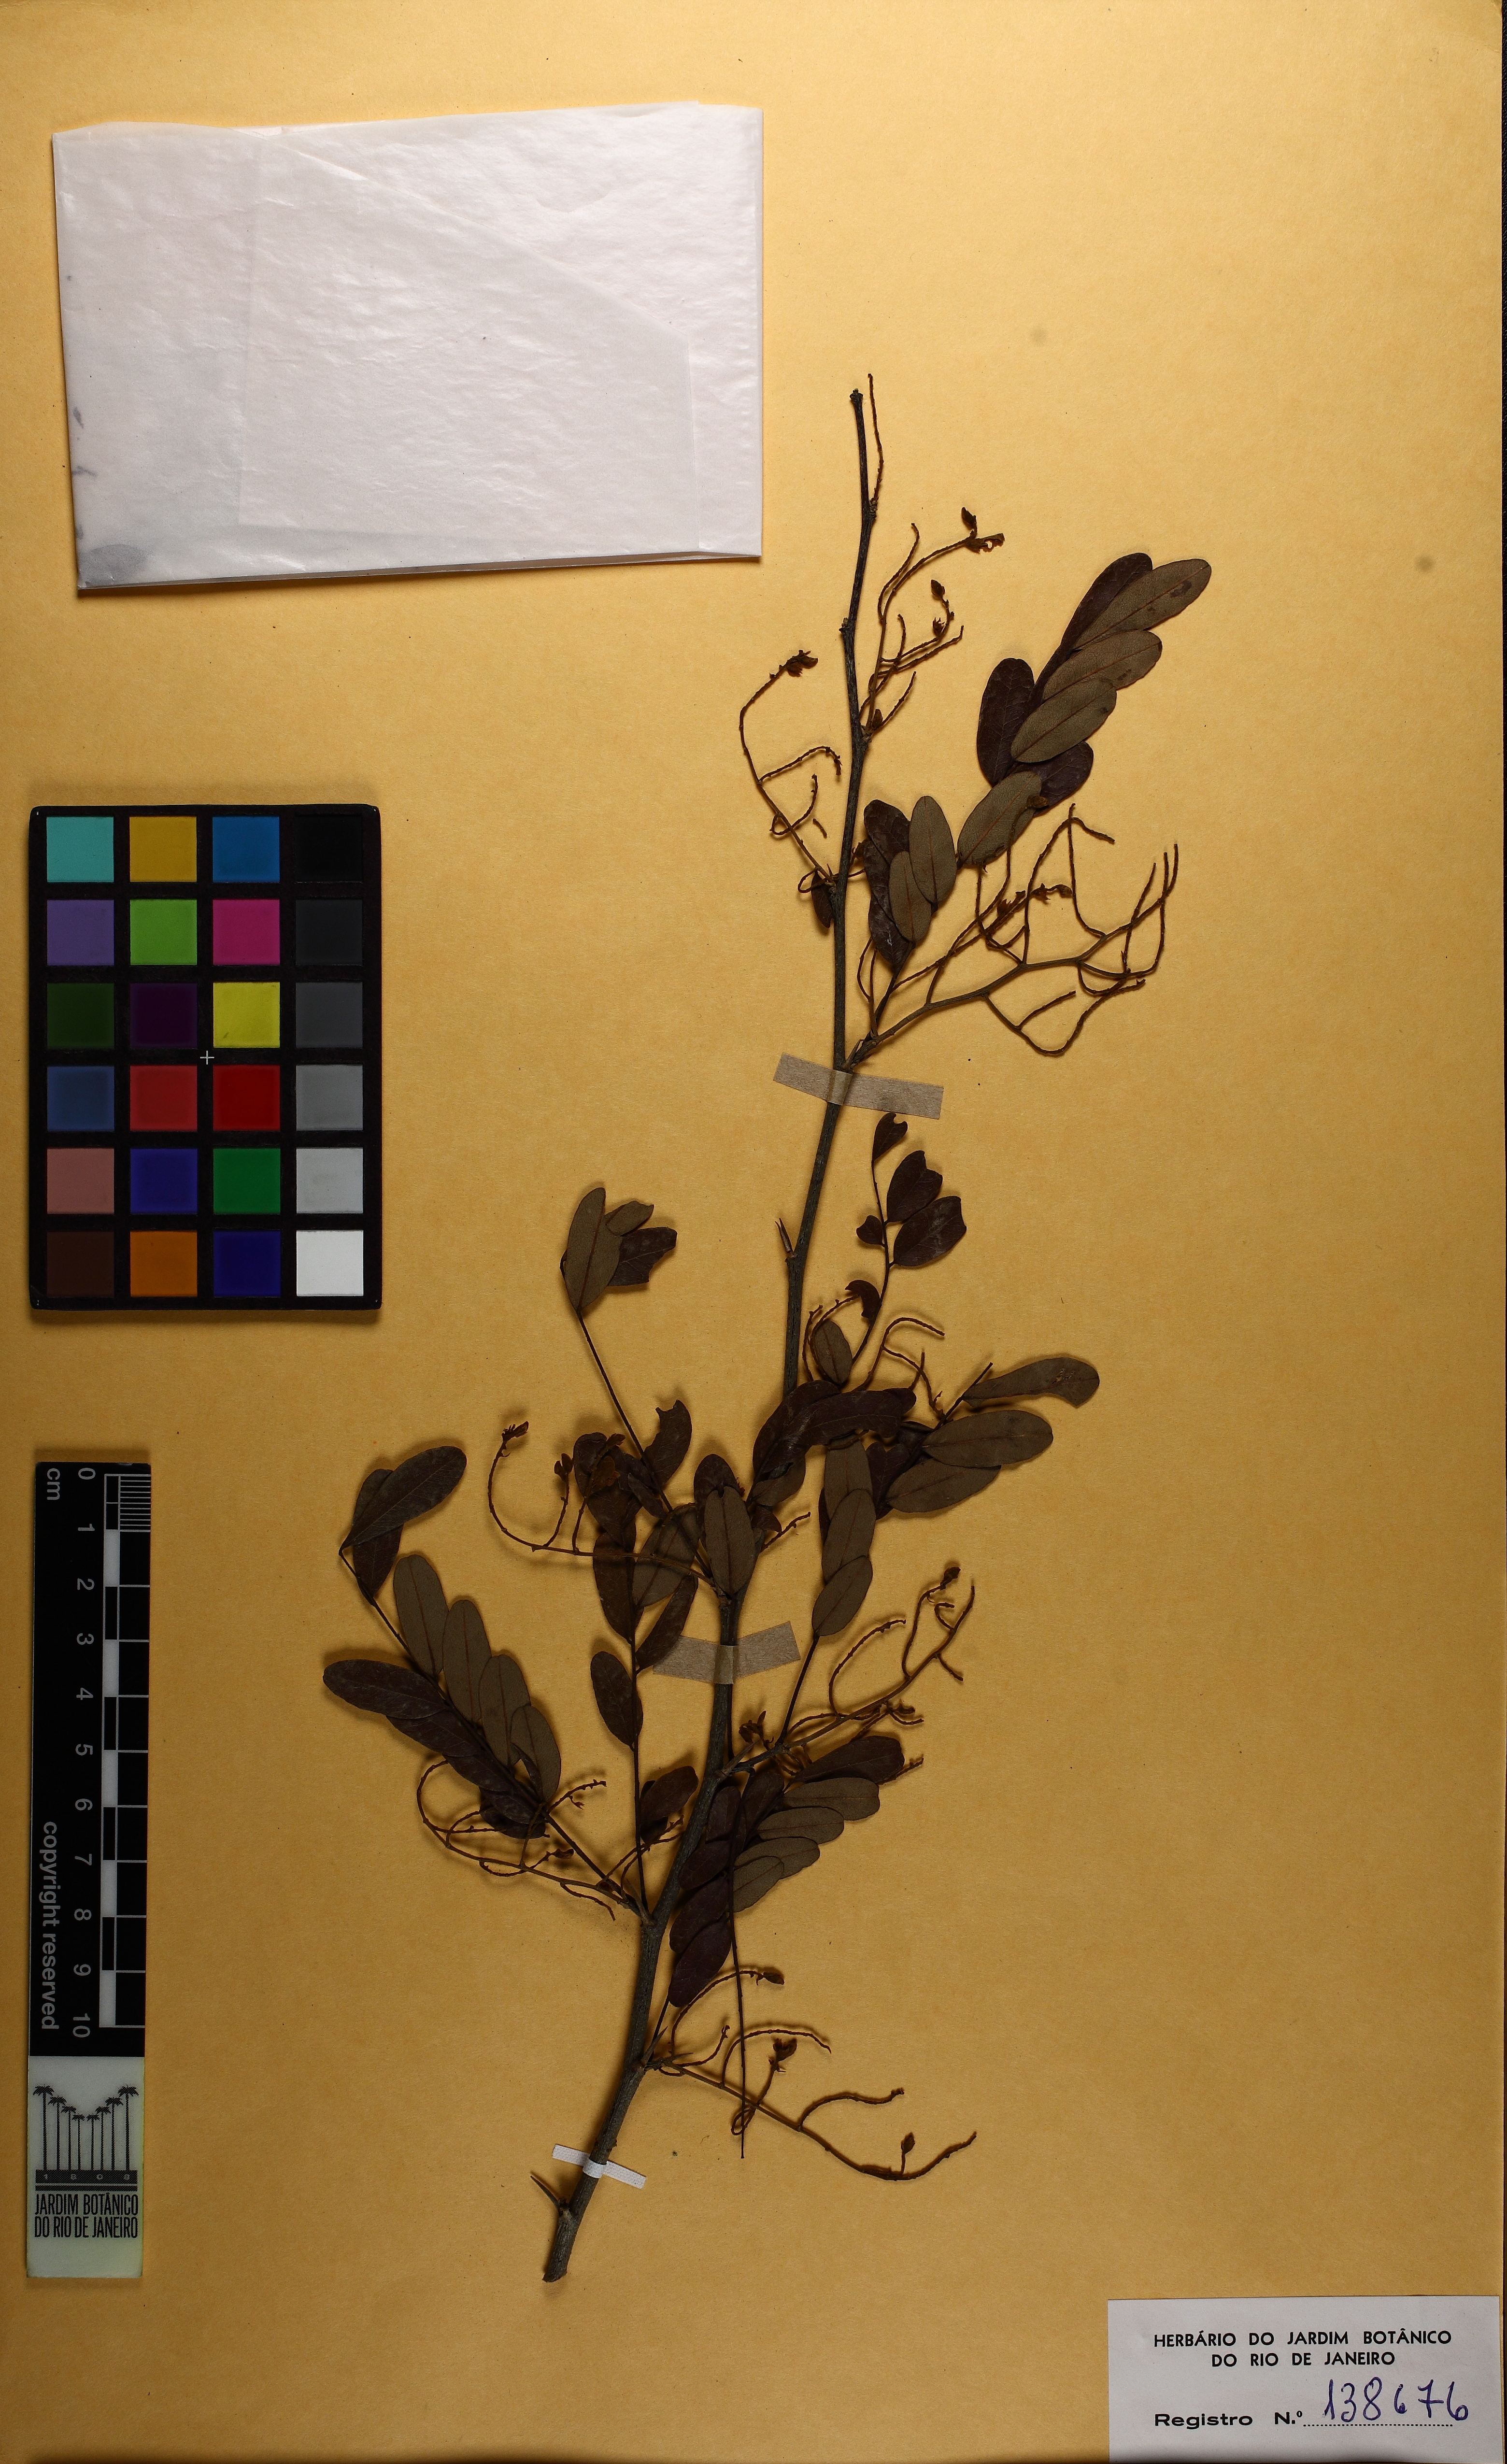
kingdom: Plantae
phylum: Tracheophyta
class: Magnoliopsida
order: Fabales
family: Fabaceae
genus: Machaerium
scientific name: Machaerium nyctitans
